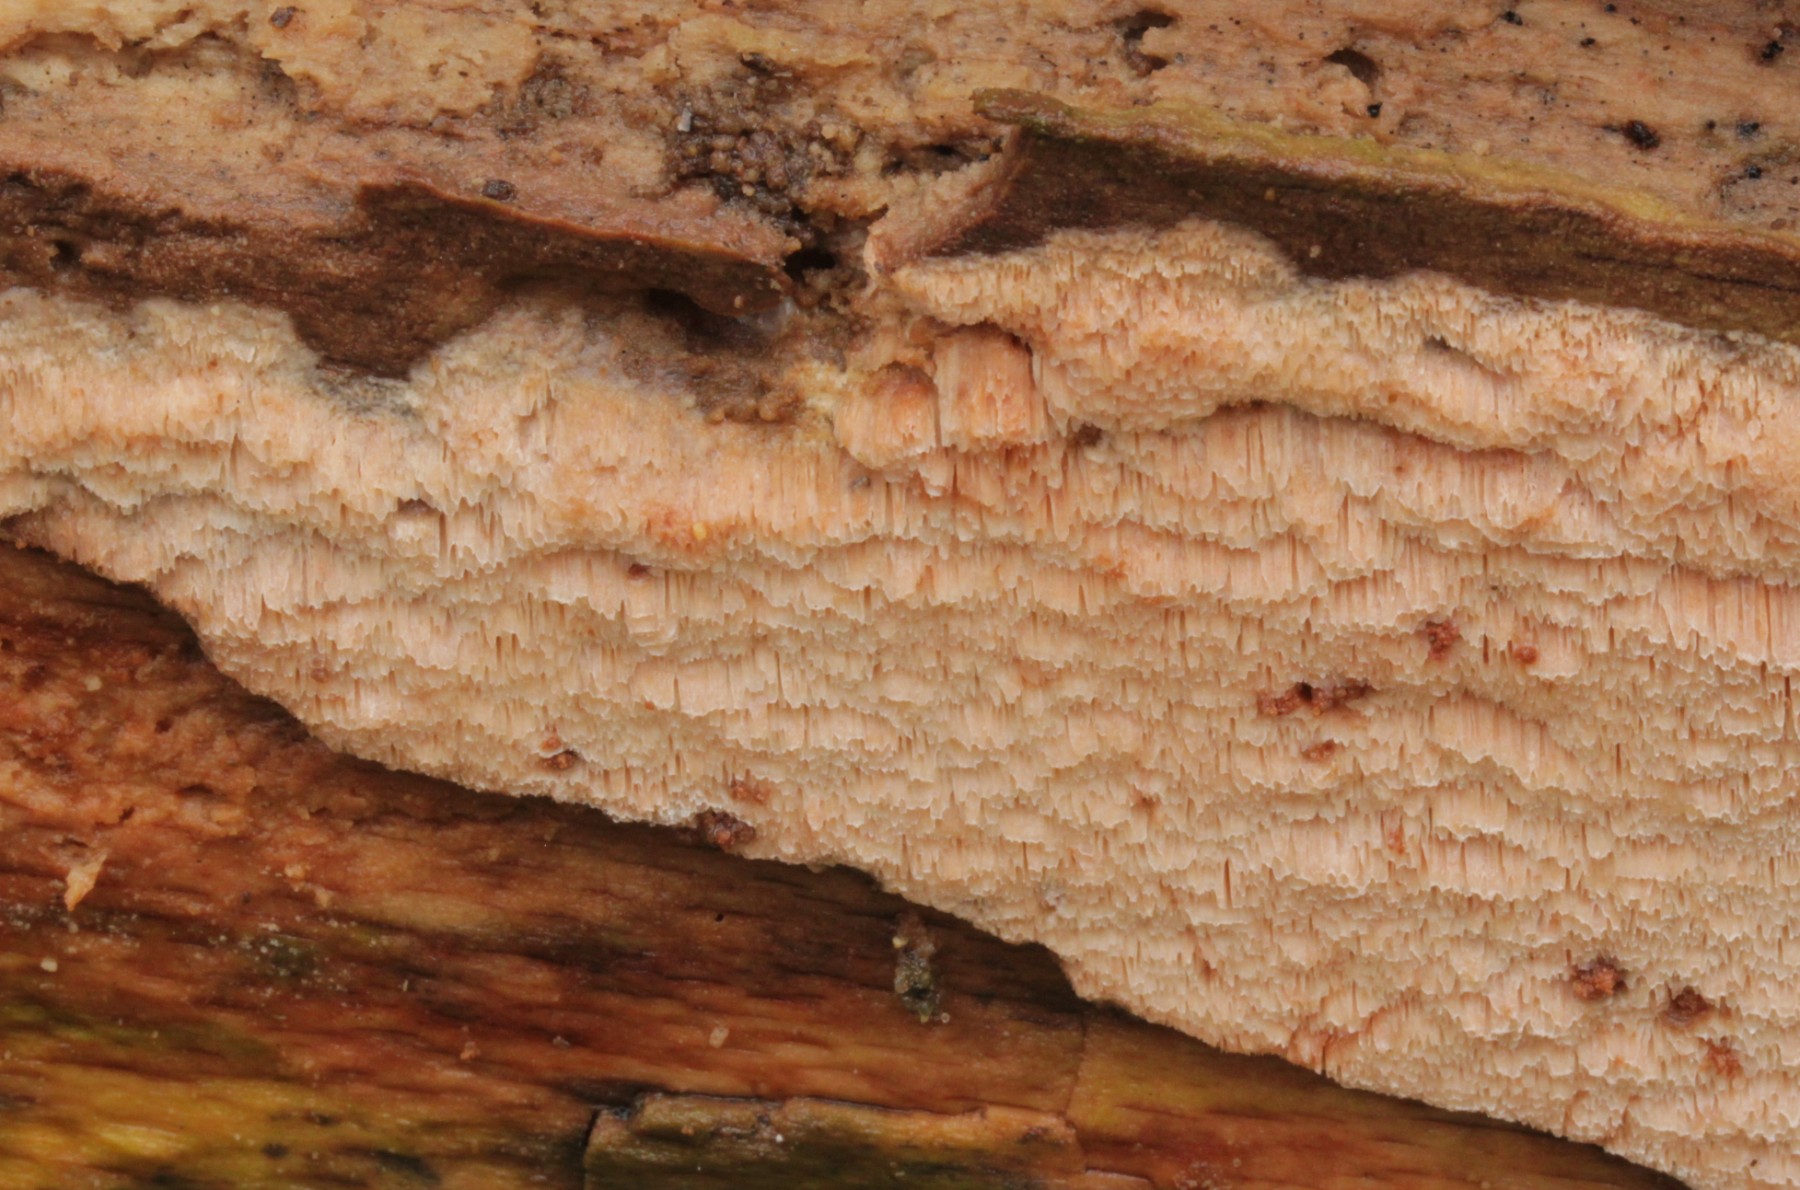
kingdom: Fungi
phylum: Basidiomycota
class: Agaricomycetes
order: Polyporales
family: Meruliaceae
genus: Mycoacia
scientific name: Mycoacia gilvescens
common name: rosa pastelporesvamp
